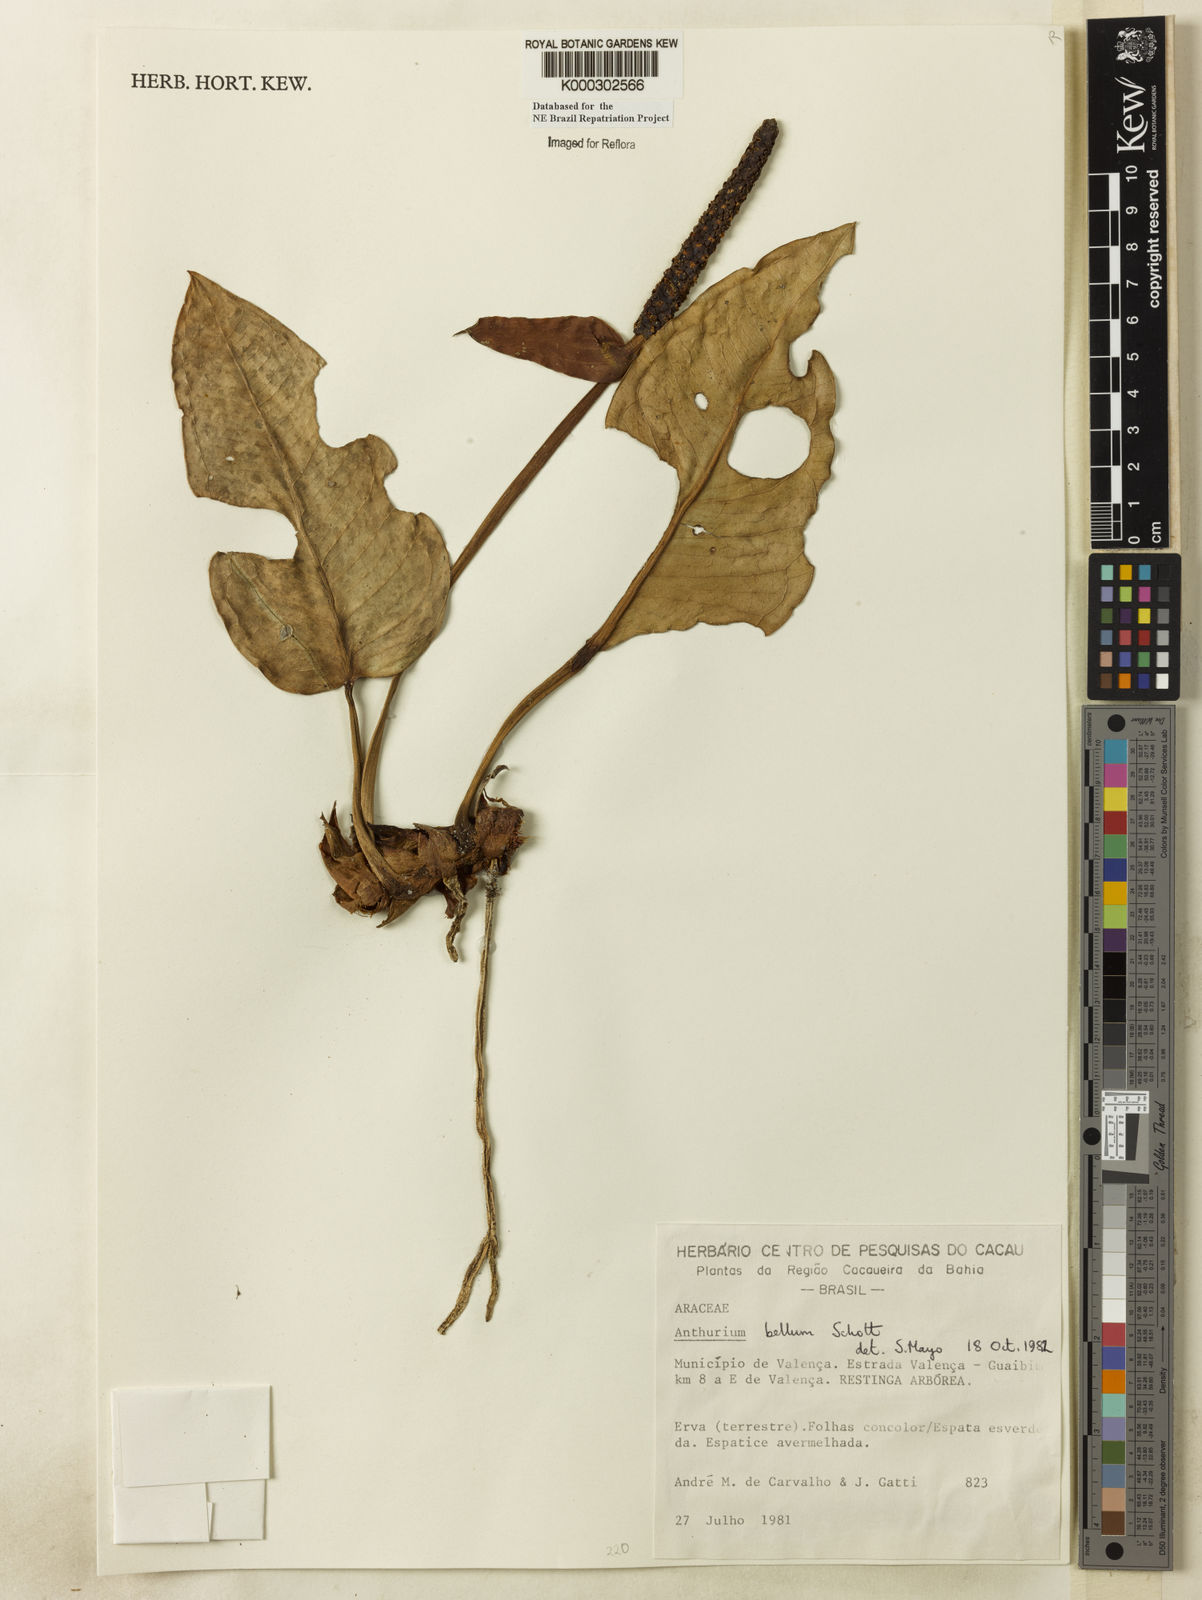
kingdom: Plantae
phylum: Tracheophyta
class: Liliopsida
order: Alismatales
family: Araceae
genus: Anthurium
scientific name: Anthurium bellum
